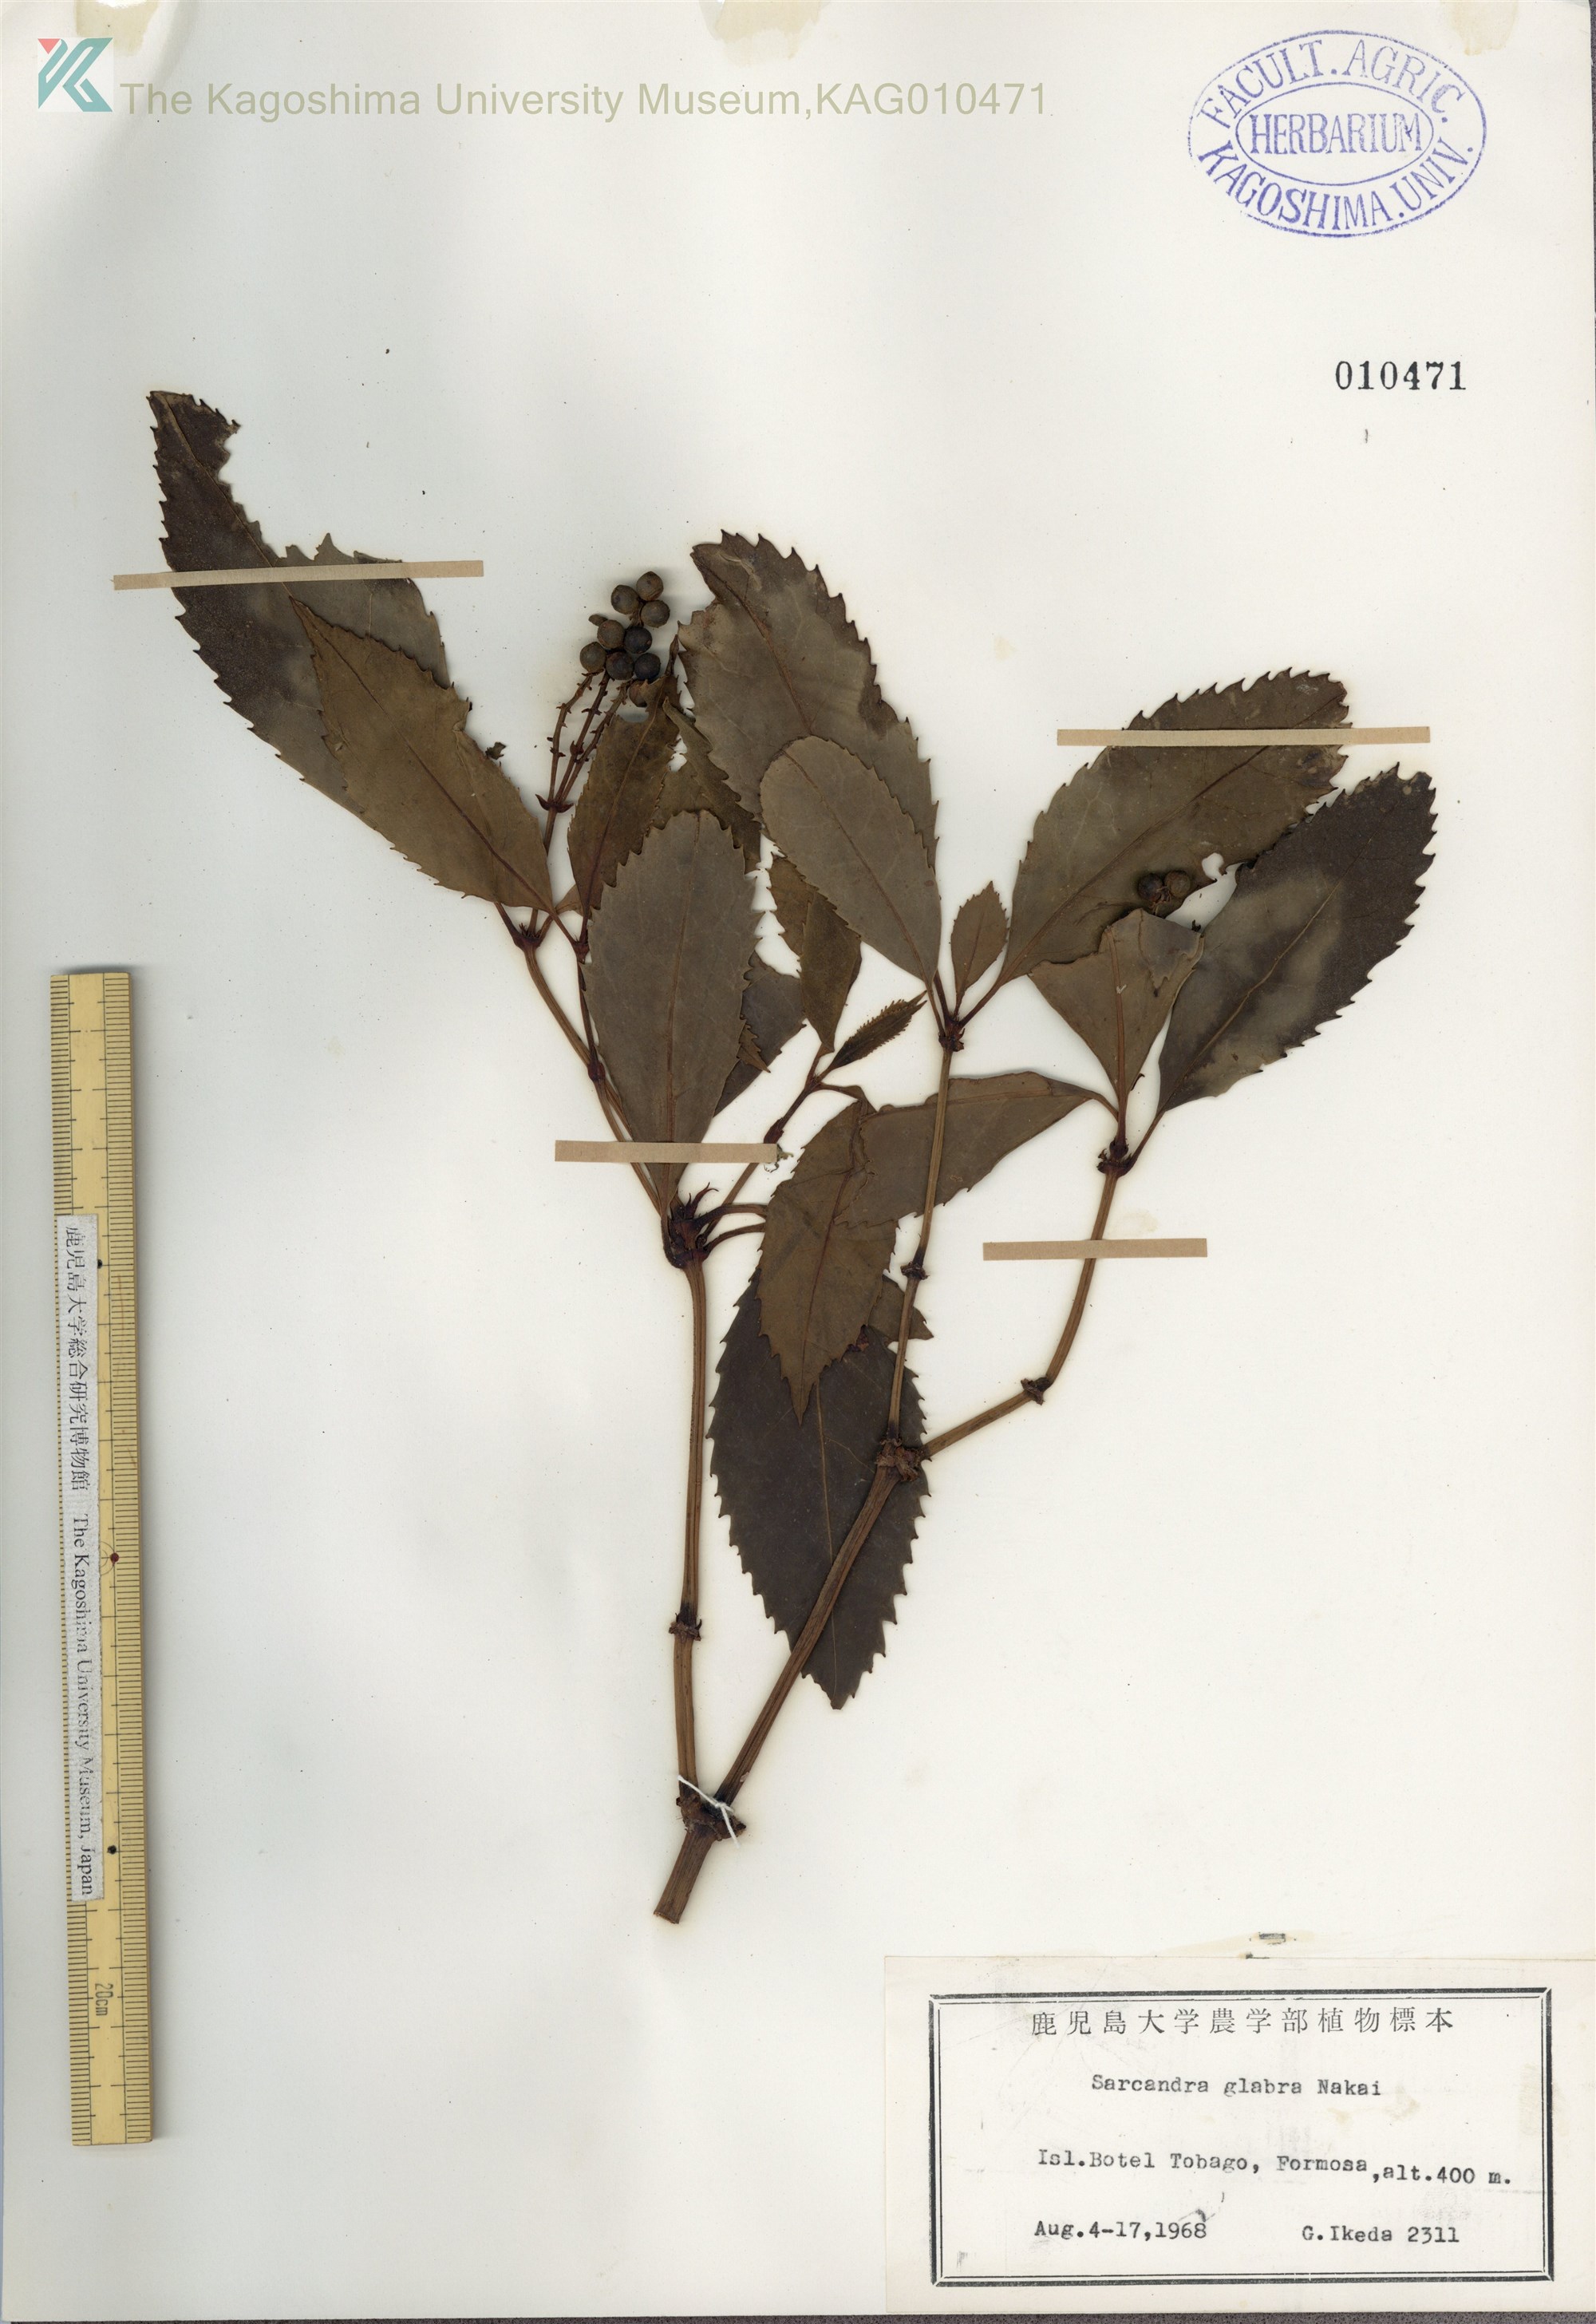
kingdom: Plantae
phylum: Tracheophyta
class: Magnoliopsida
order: Chloranthales
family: Chloranthaceae
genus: Sarcandra
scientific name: Sarcandra glabra
